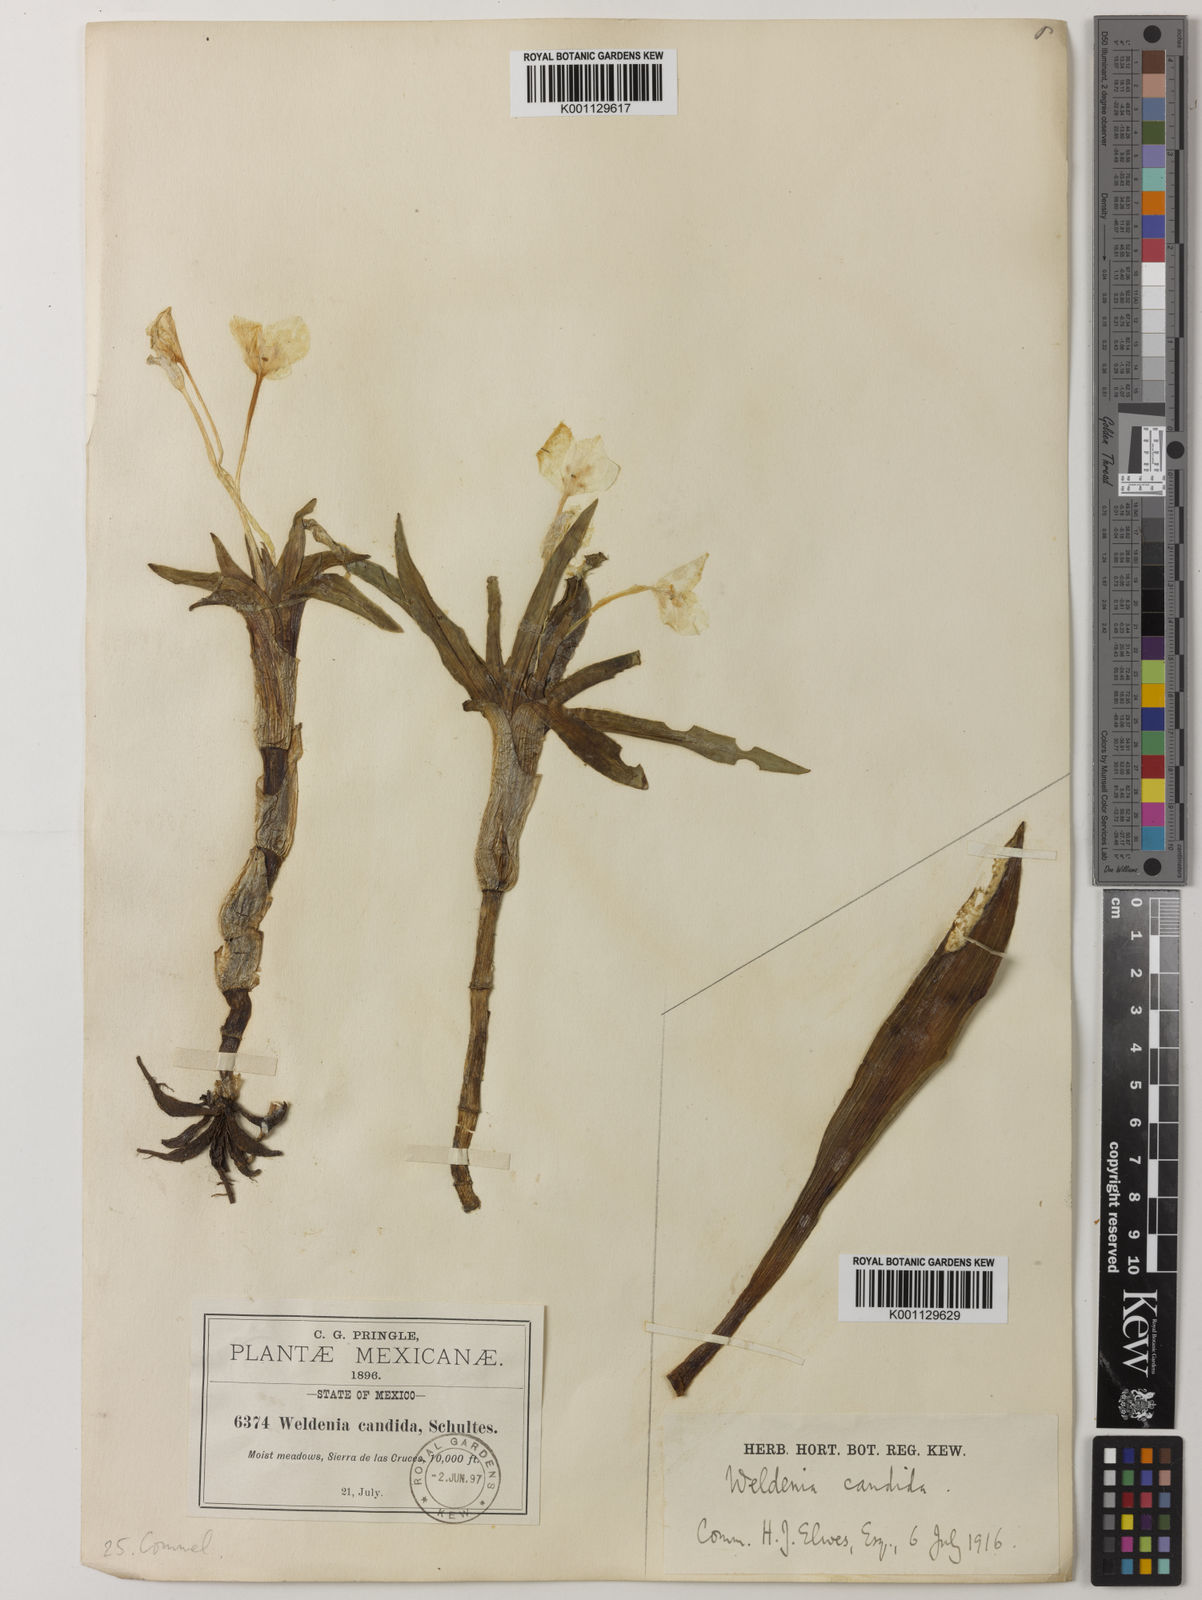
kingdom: Plantae
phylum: Tracheophyta
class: Liliopsida
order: Commelinales
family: Commelinaceae
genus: Weldenia
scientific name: Weldenia candida
